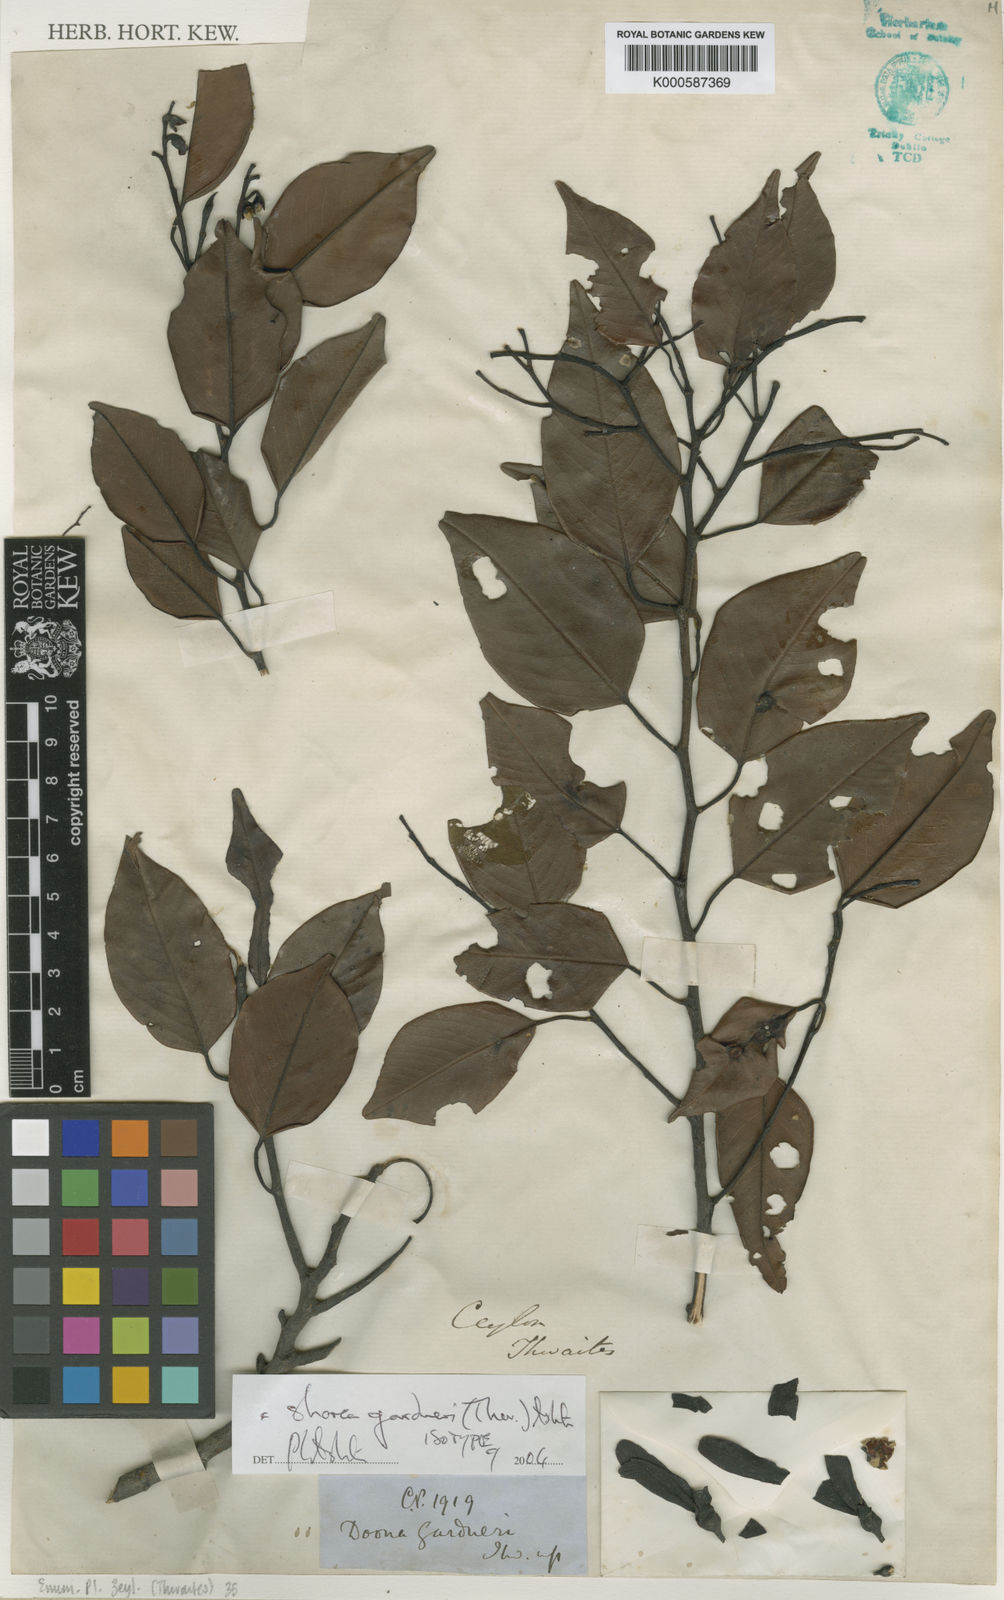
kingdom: Plantae
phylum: Tracheophyta
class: Magnoliopsida
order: Malvales
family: Dipterocarpaceae
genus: Doona
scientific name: Doona gardneri
